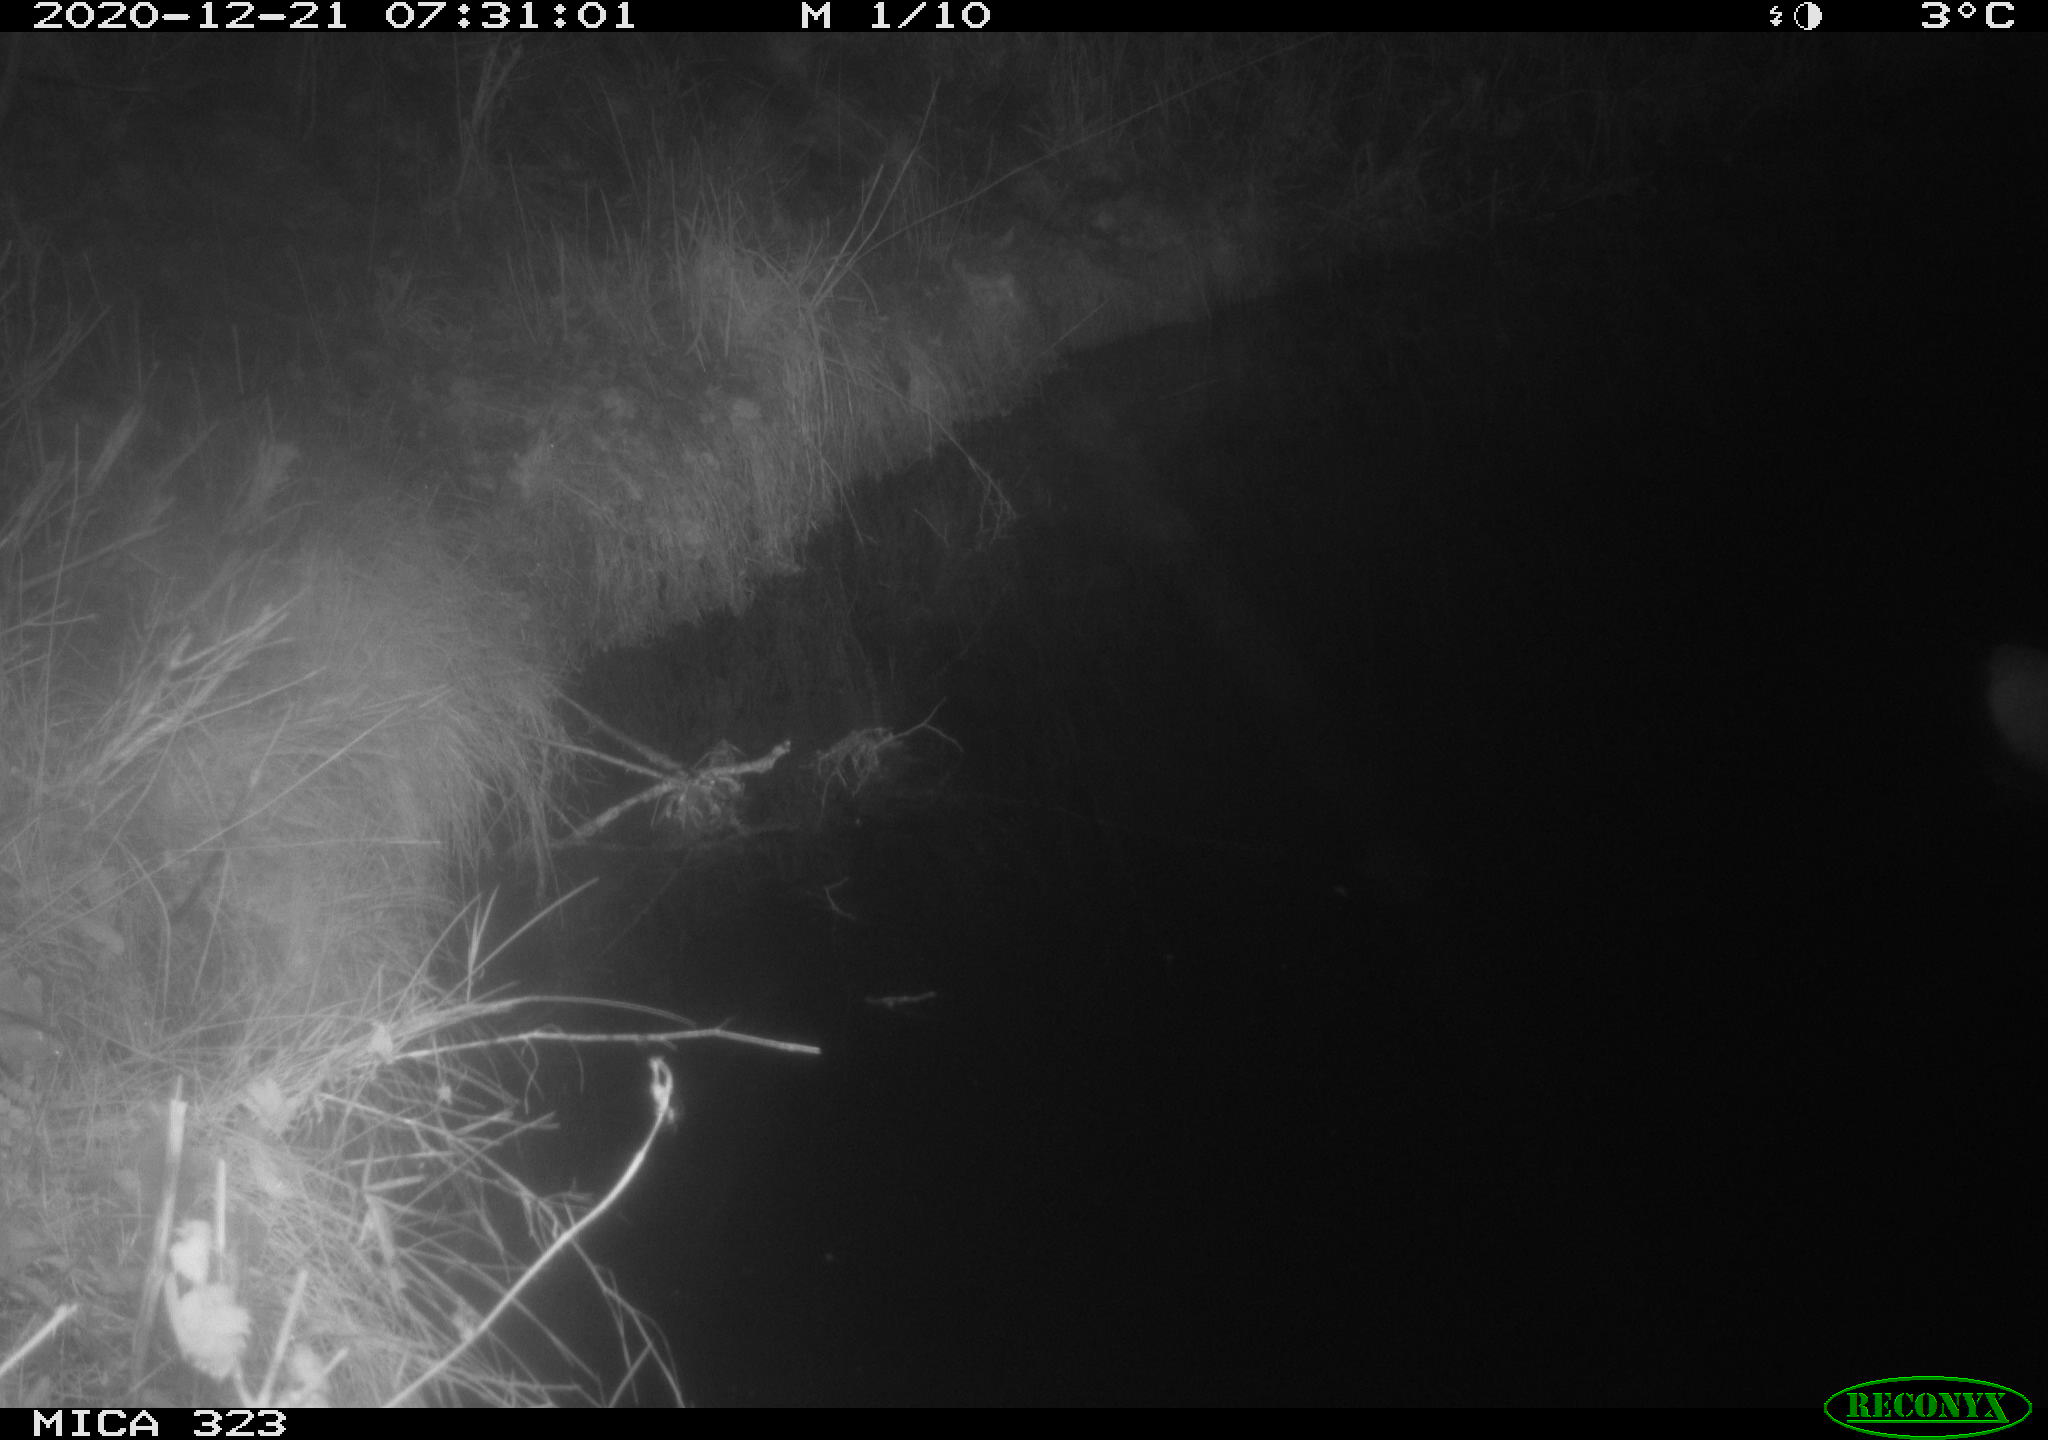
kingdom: Animalia
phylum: Chordata
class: Mammalia
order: Rodentia
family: Myocastoridae
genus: Myocastor
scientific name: Myocastor coypus
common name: Coypu
